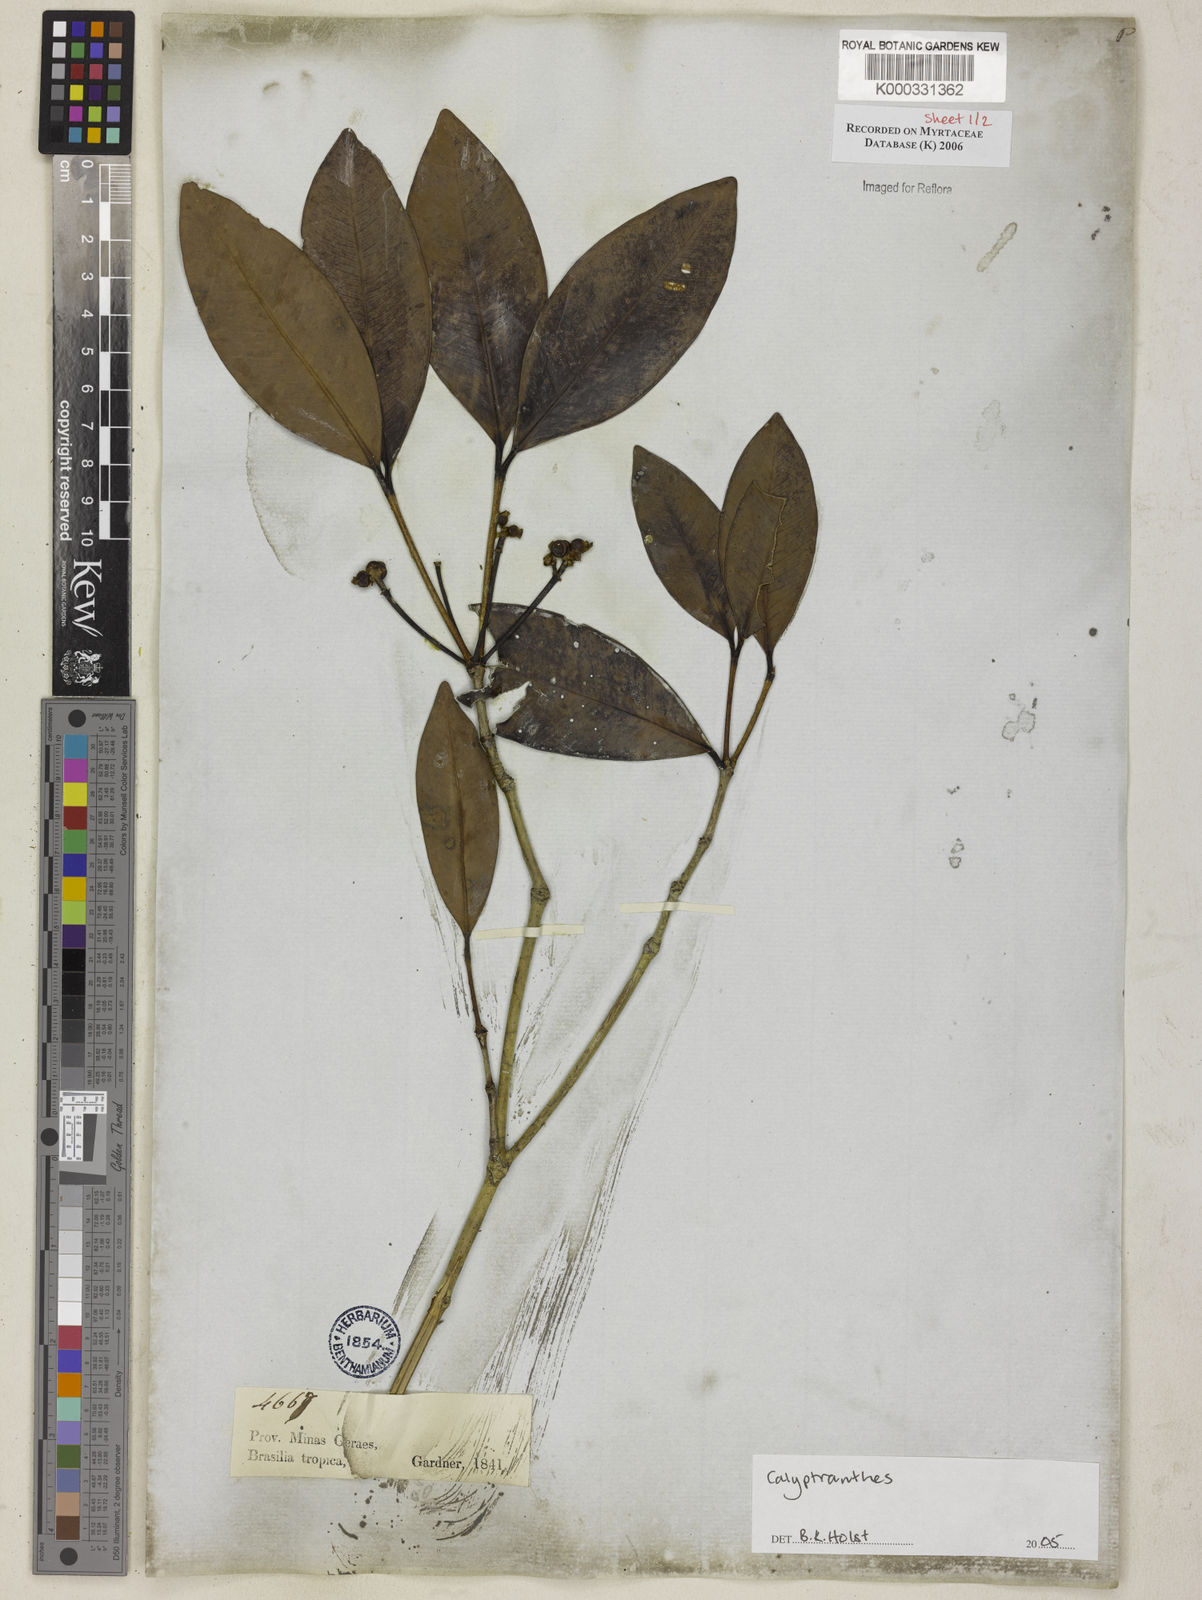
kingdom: Plantae
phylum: Tracheophyta
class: Magnoliopsida
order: Myrtales
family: Myrtaceae
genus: Myrcia
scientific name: Myrcia martiusiana
